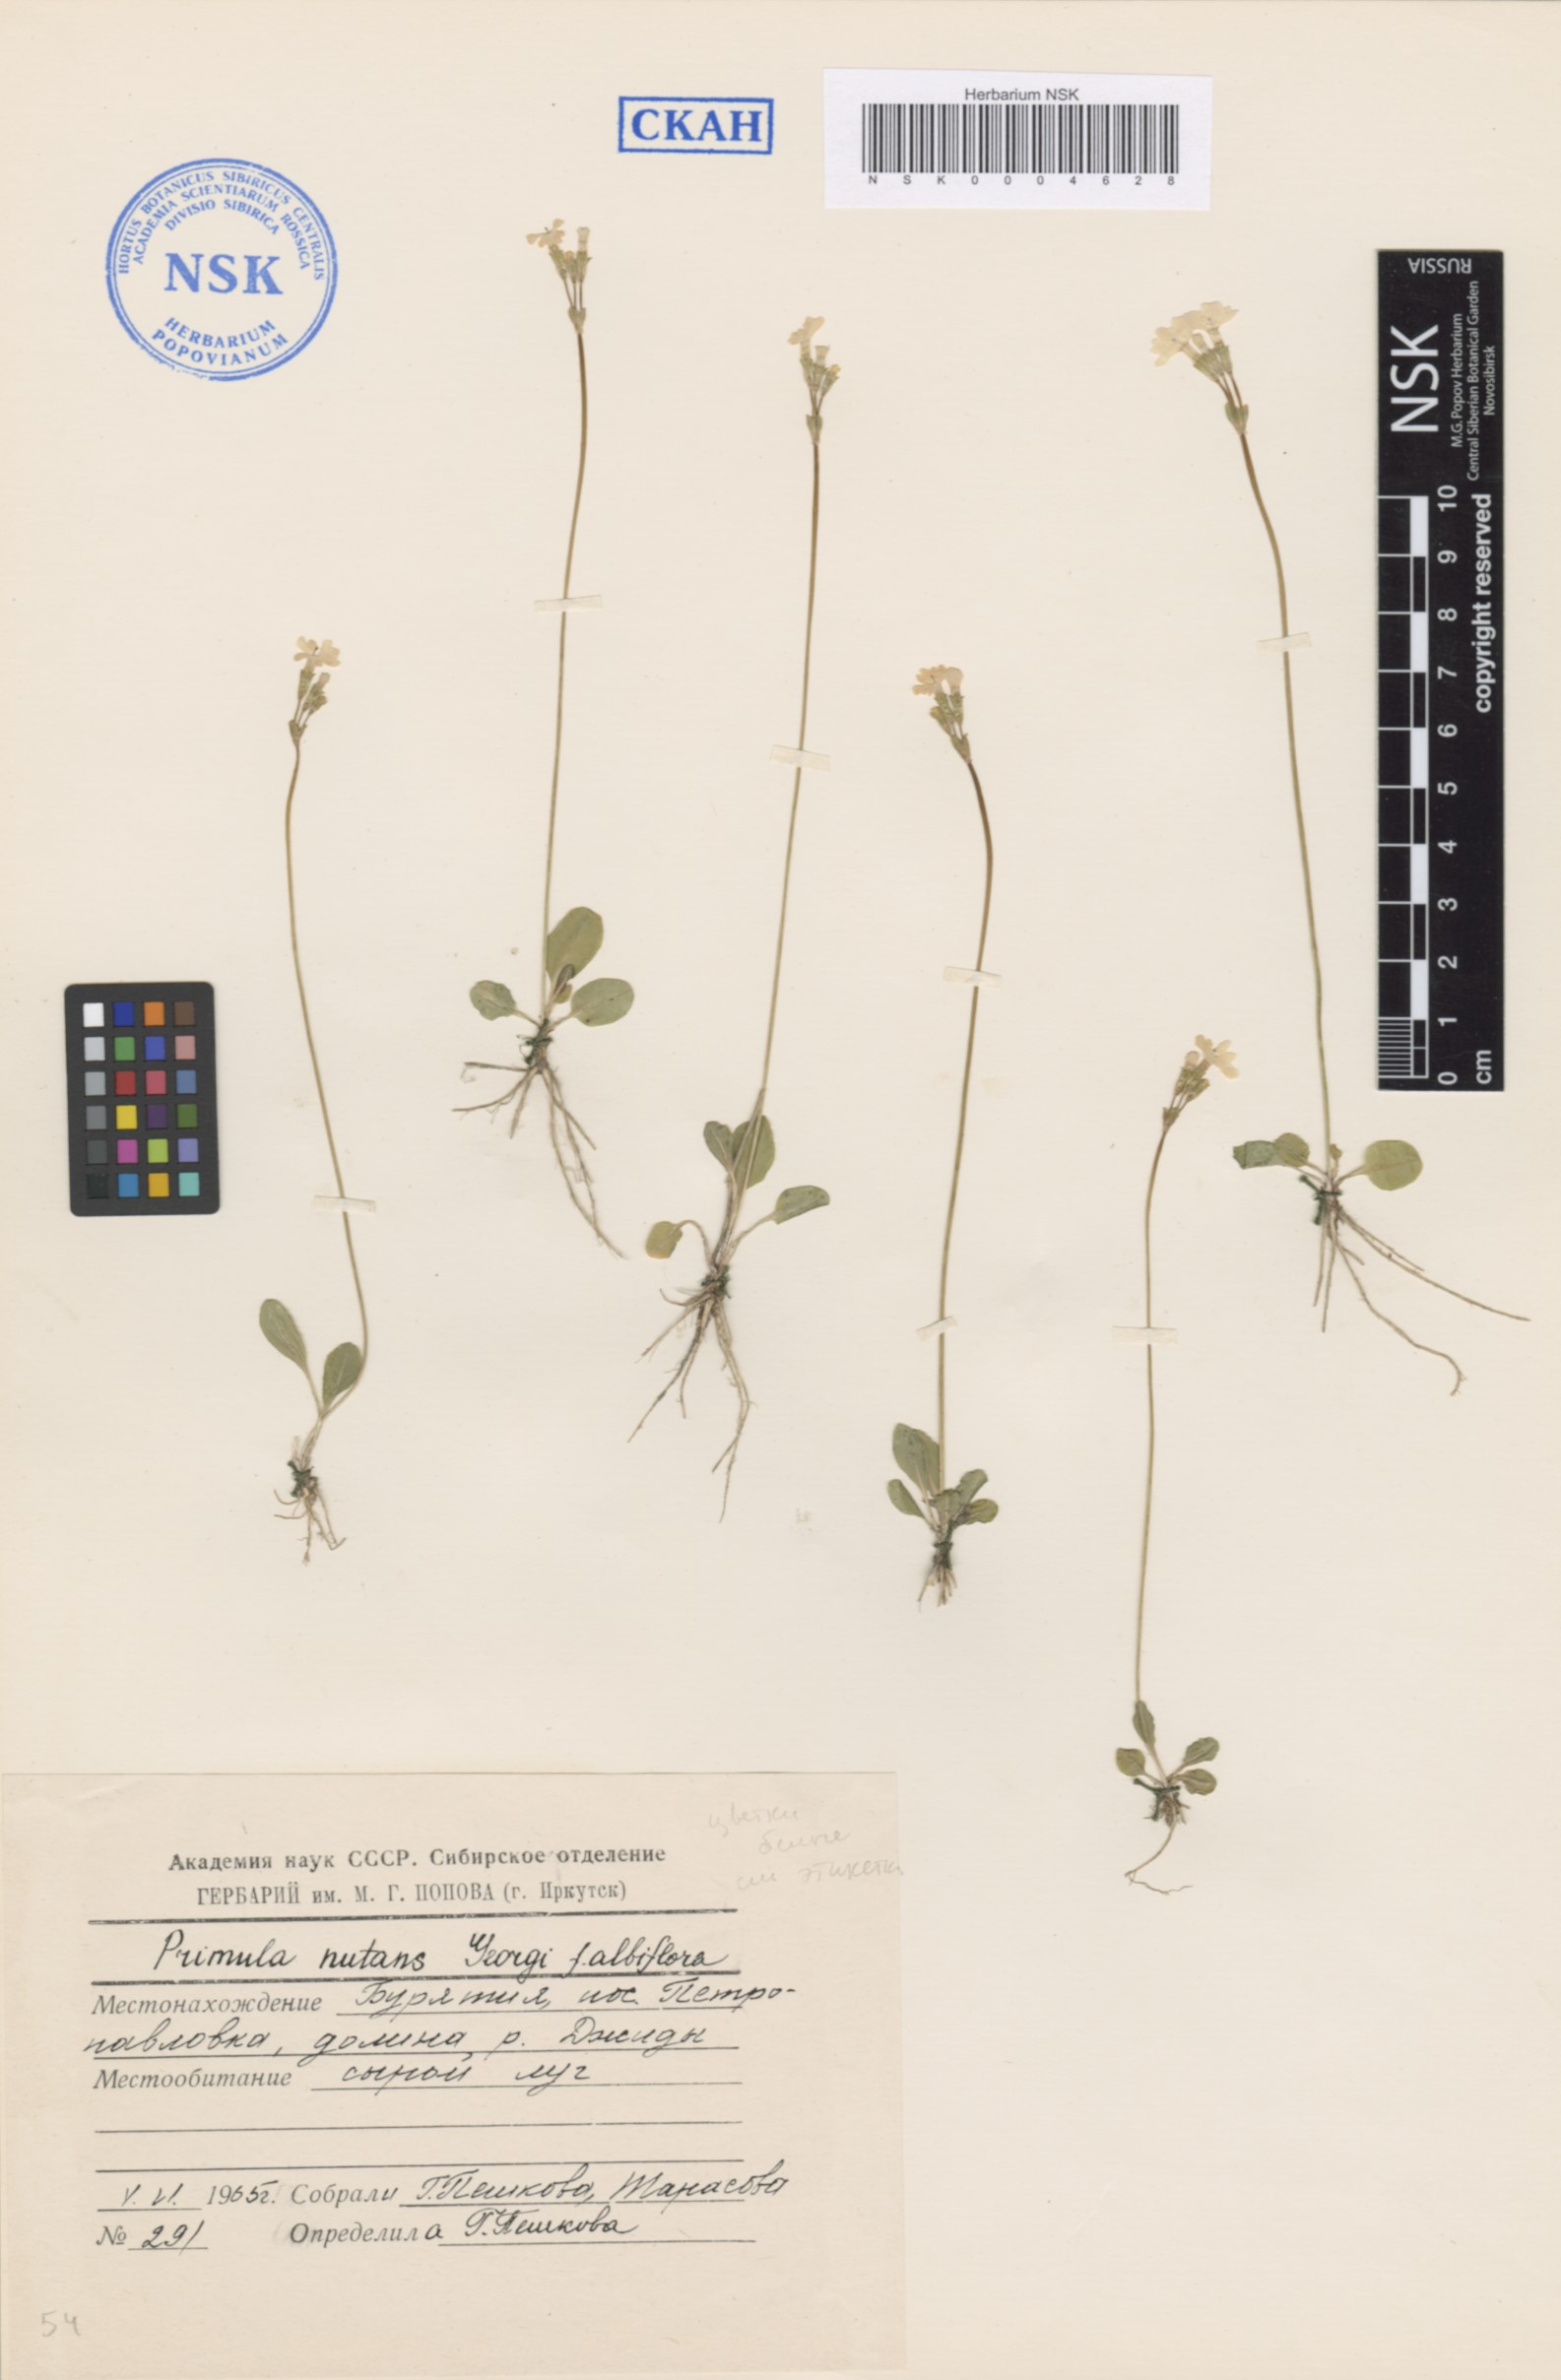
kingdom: Plantae
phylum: Tracheophyta
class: Magnoliopsida
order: Ericales
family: Primulaceae
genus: Primula
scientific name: Primula nutans
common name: Siberian primrose
